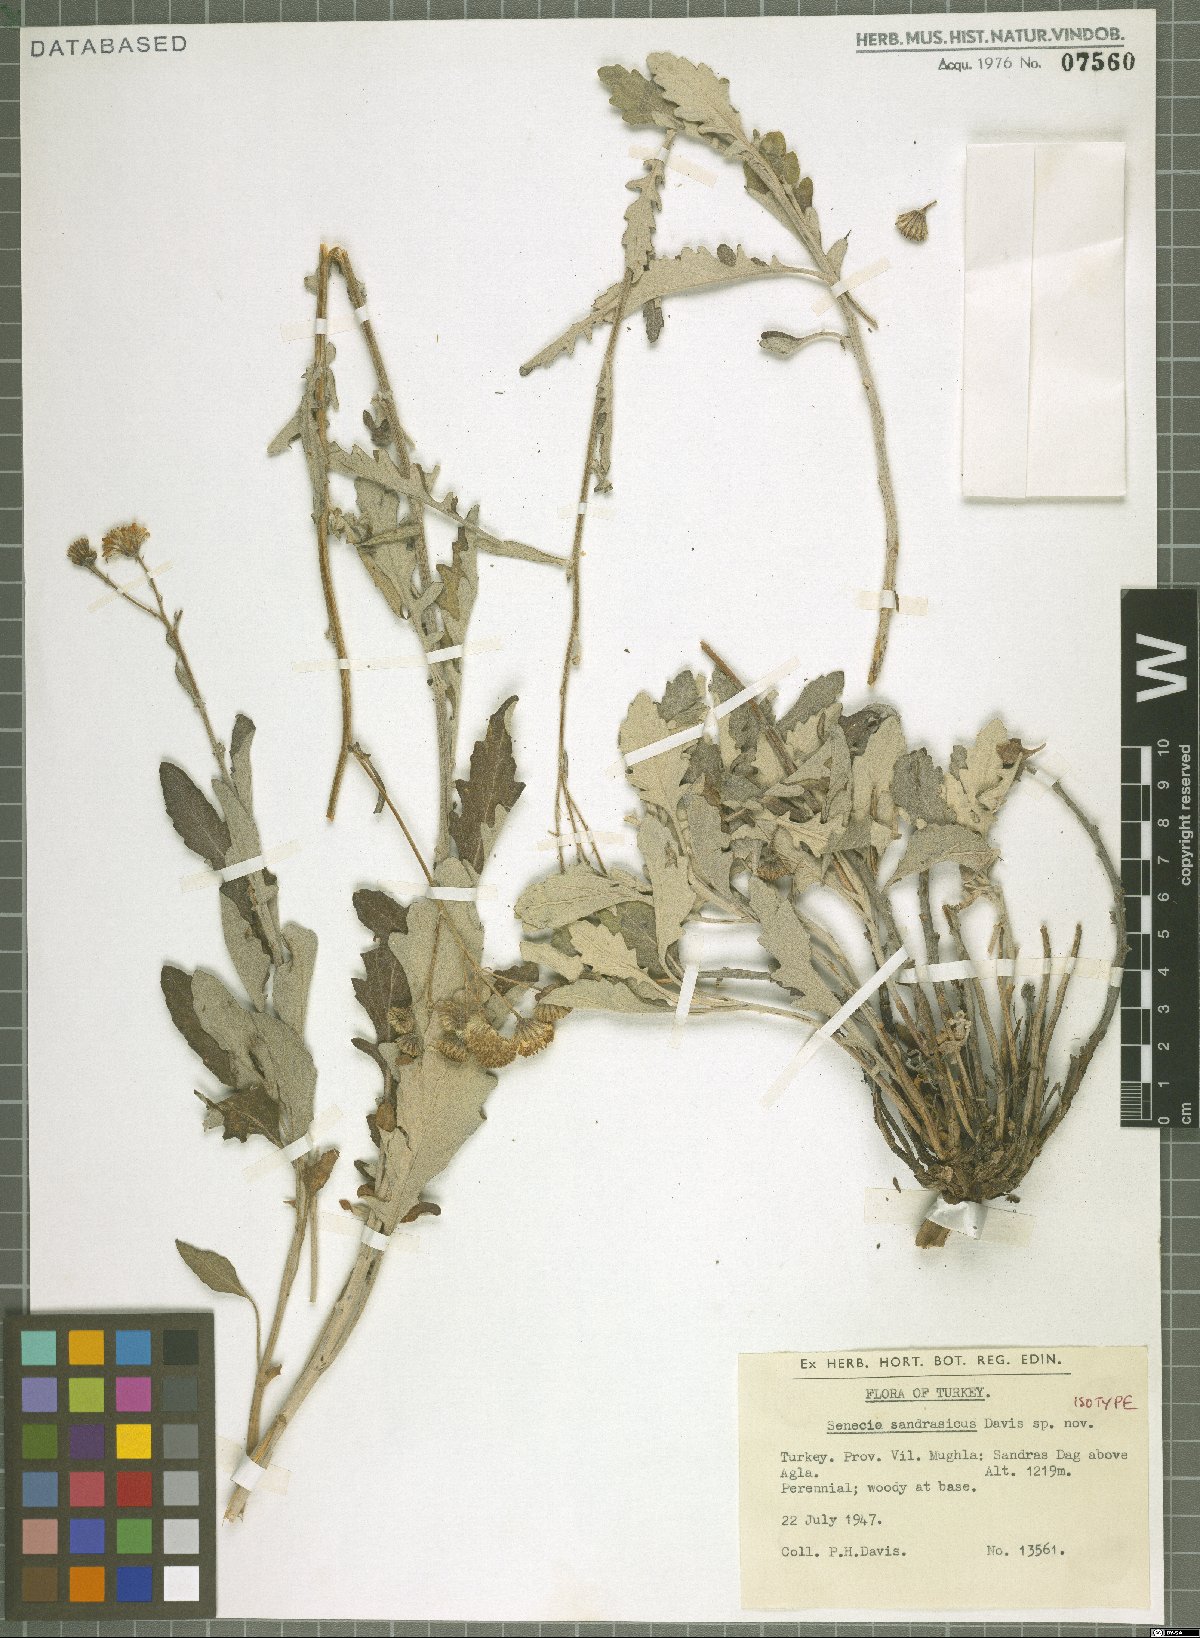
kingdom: Plantae
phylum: Tracheophyta
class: Magnoliopsida
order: Asterales
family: Asteraceae
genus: Jacobaea
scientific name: Jacobaea sandrasica
